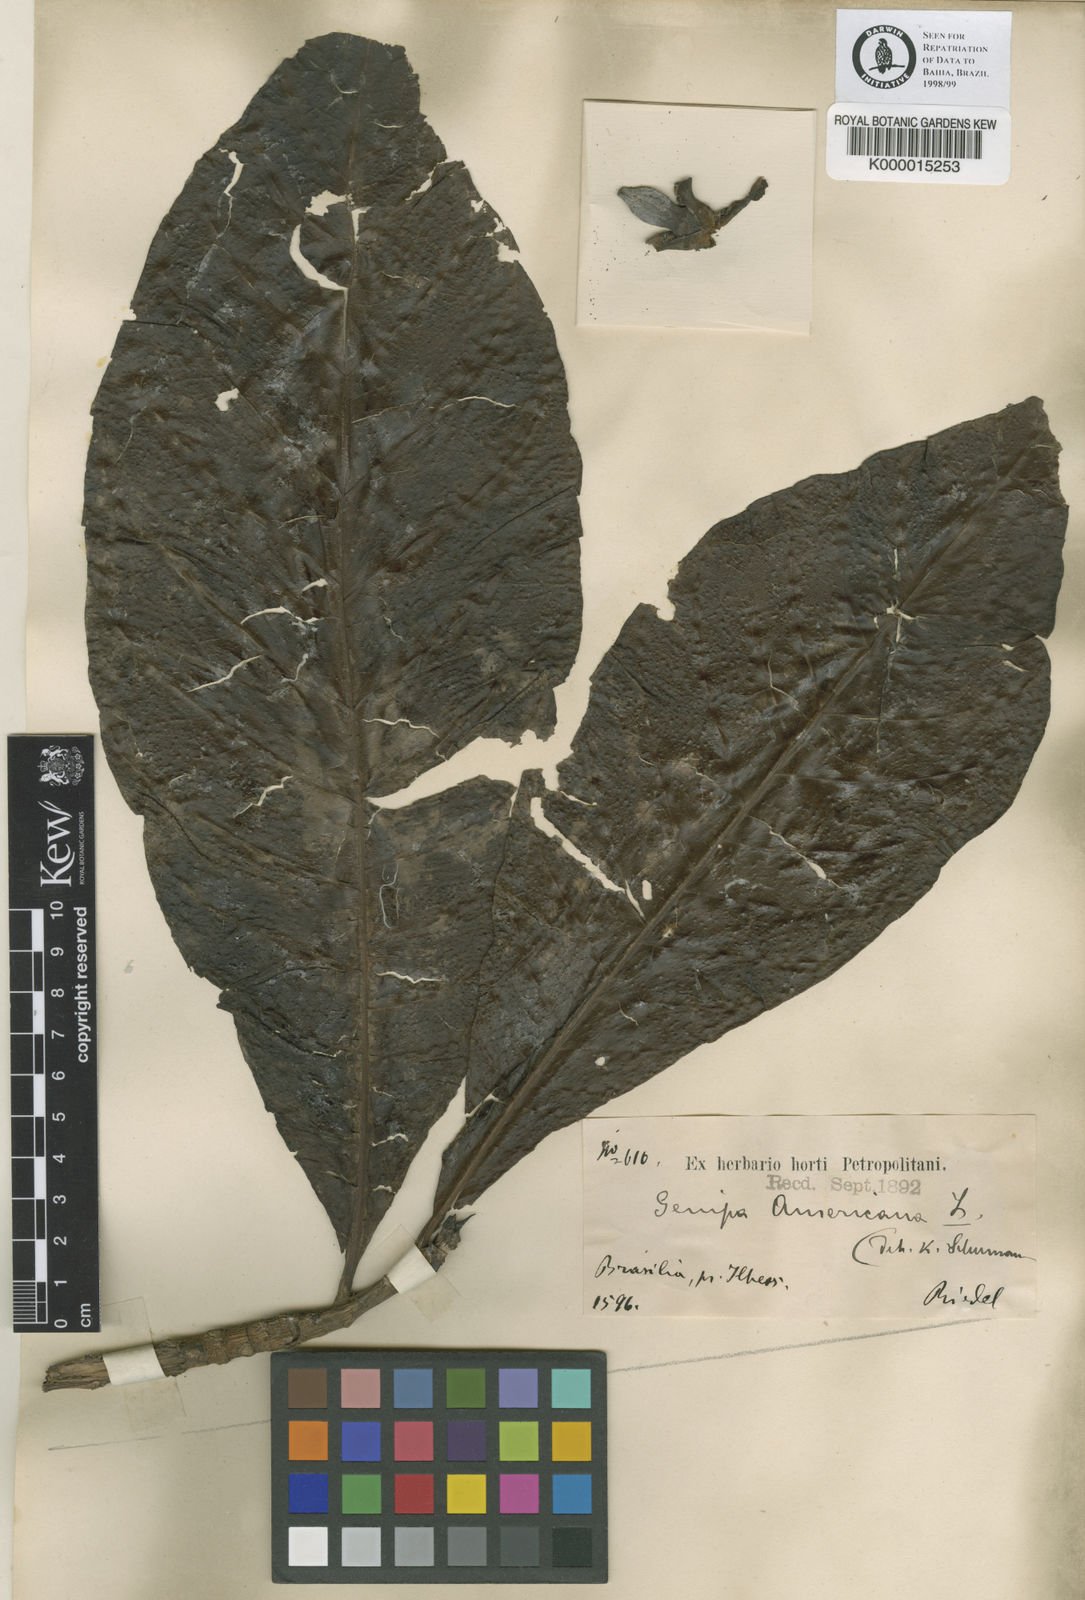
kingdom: Plantae
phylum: Tracheophyta
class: Magnoliopsida
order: Gentianales
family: Rubiaceae
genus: Genipa
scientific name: Genipa americana
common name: Genipap
